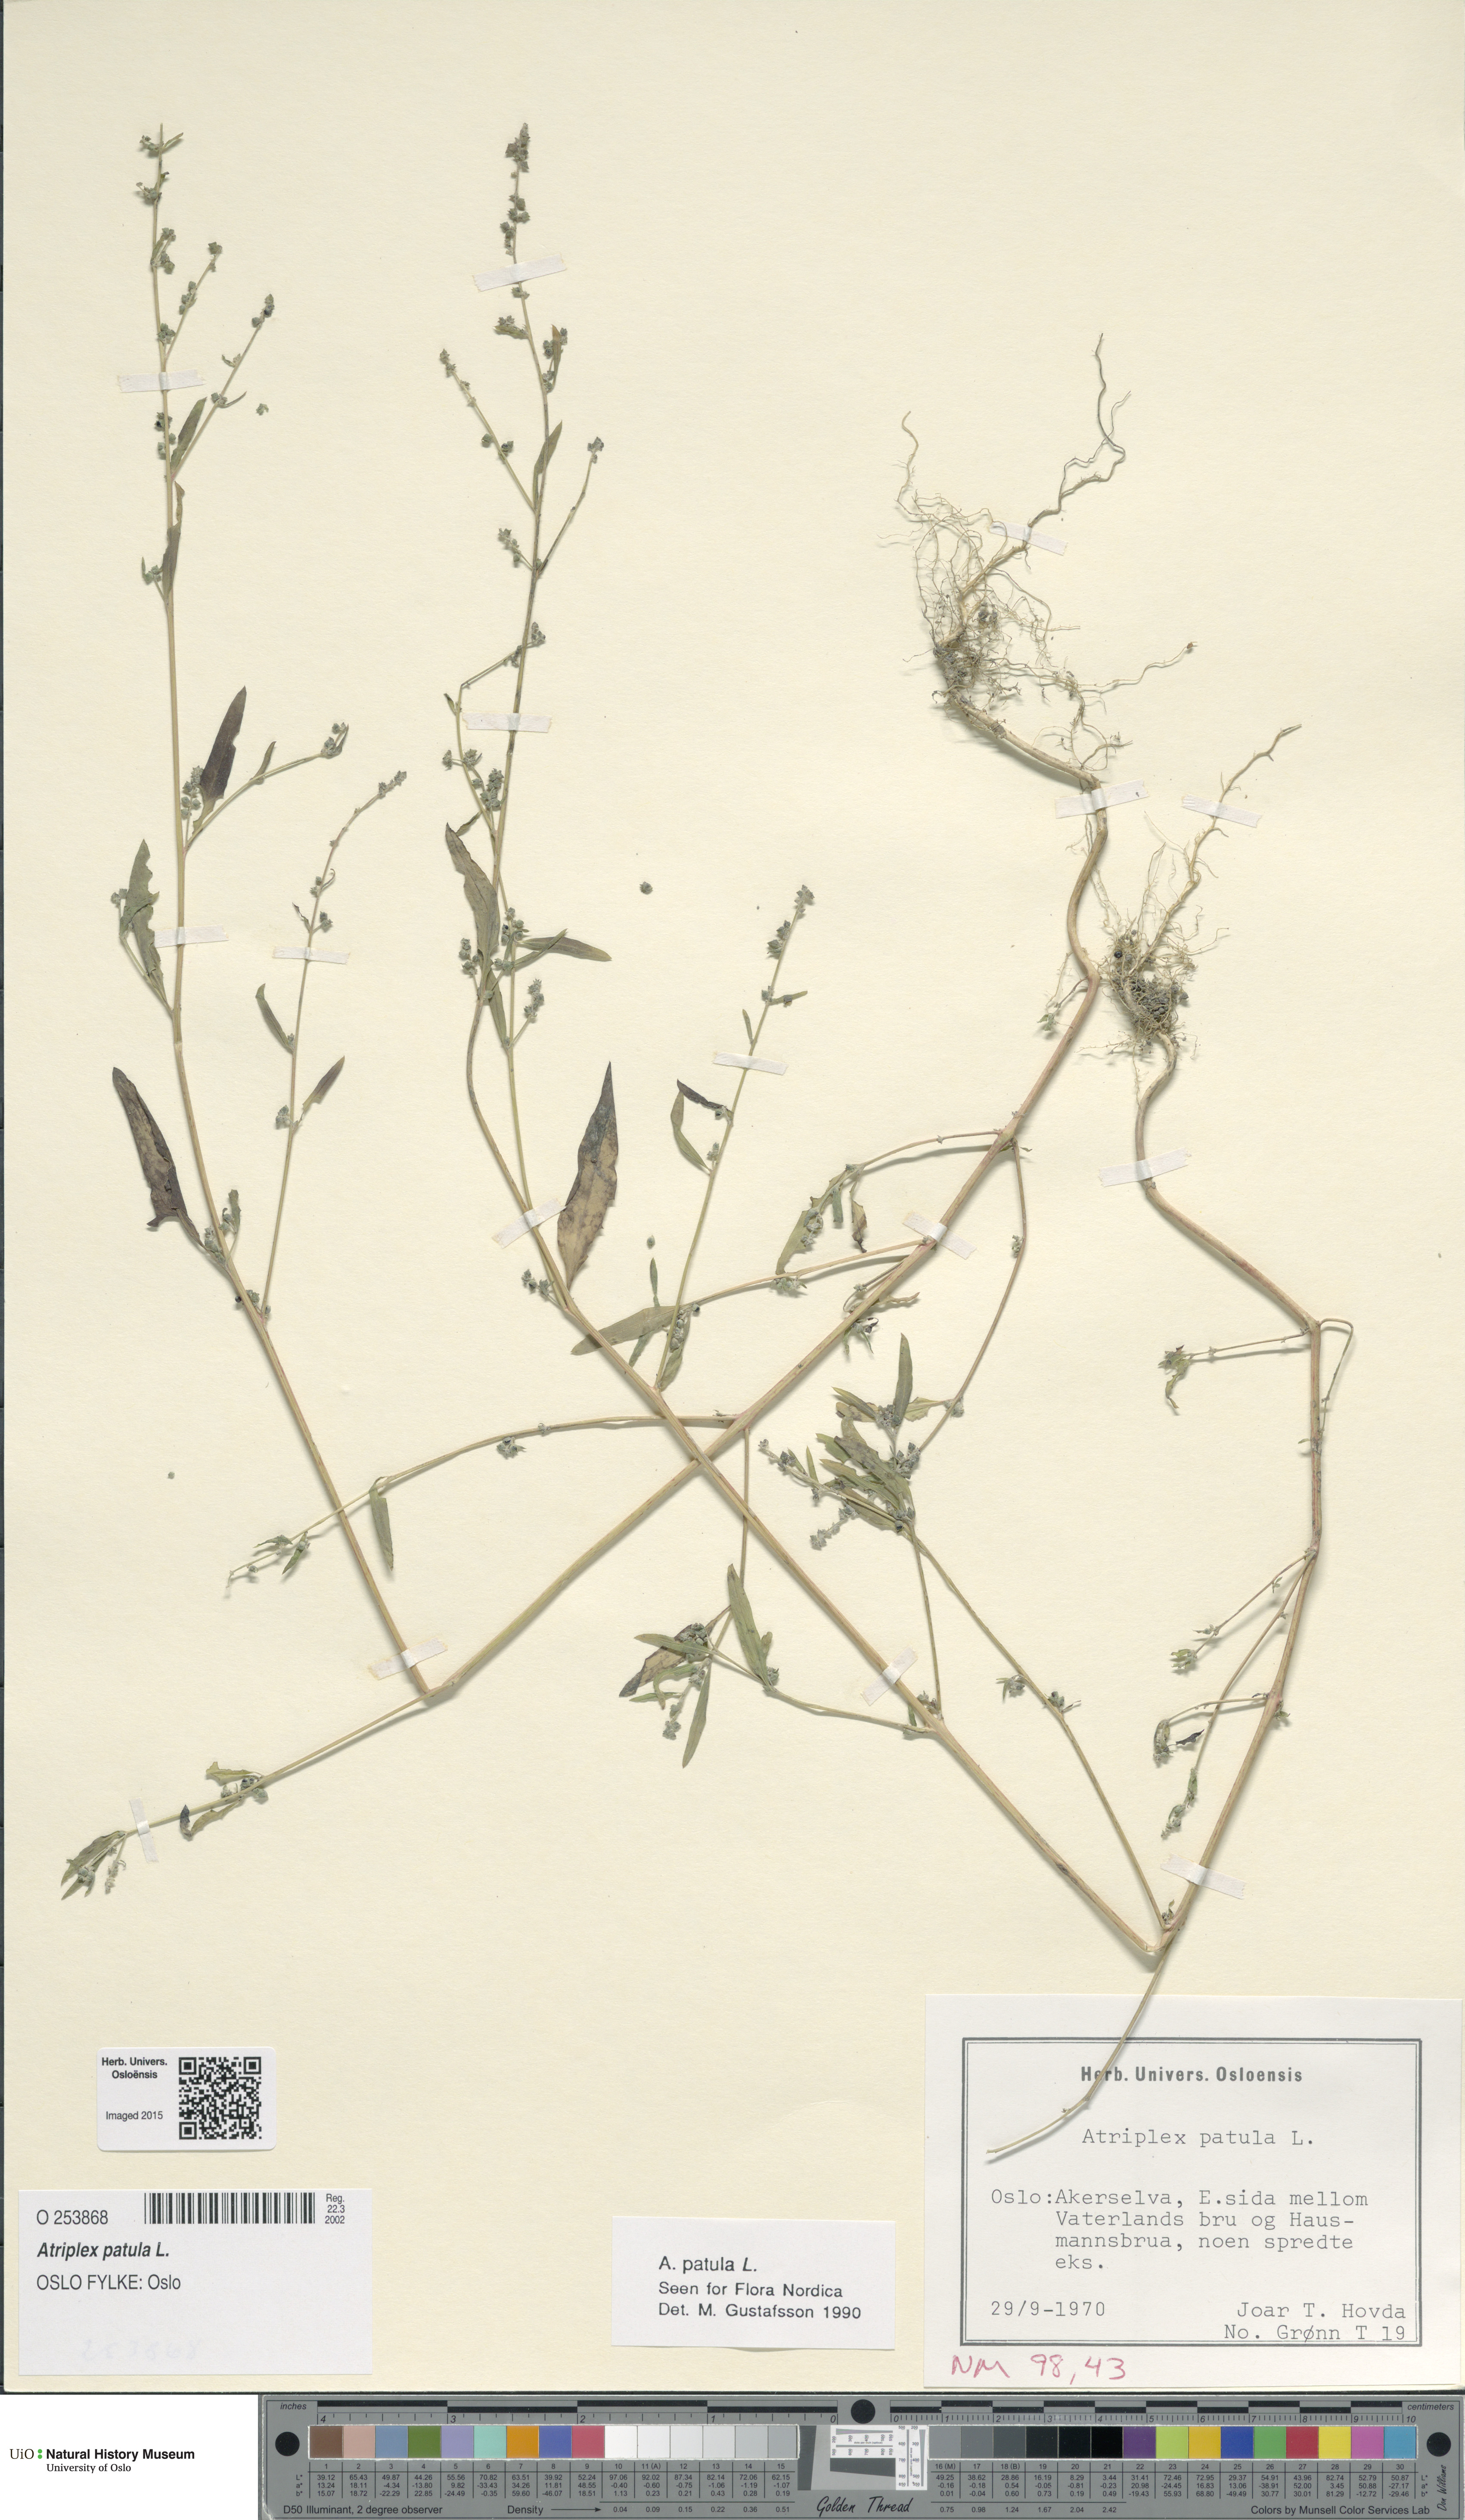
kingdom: Plantae
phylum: Tracheophyta
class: Magnoliopsida
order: Caryophyllales
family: Amaranthaceae
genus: Atriplex
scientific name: Atriplex patula
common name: Common orache
